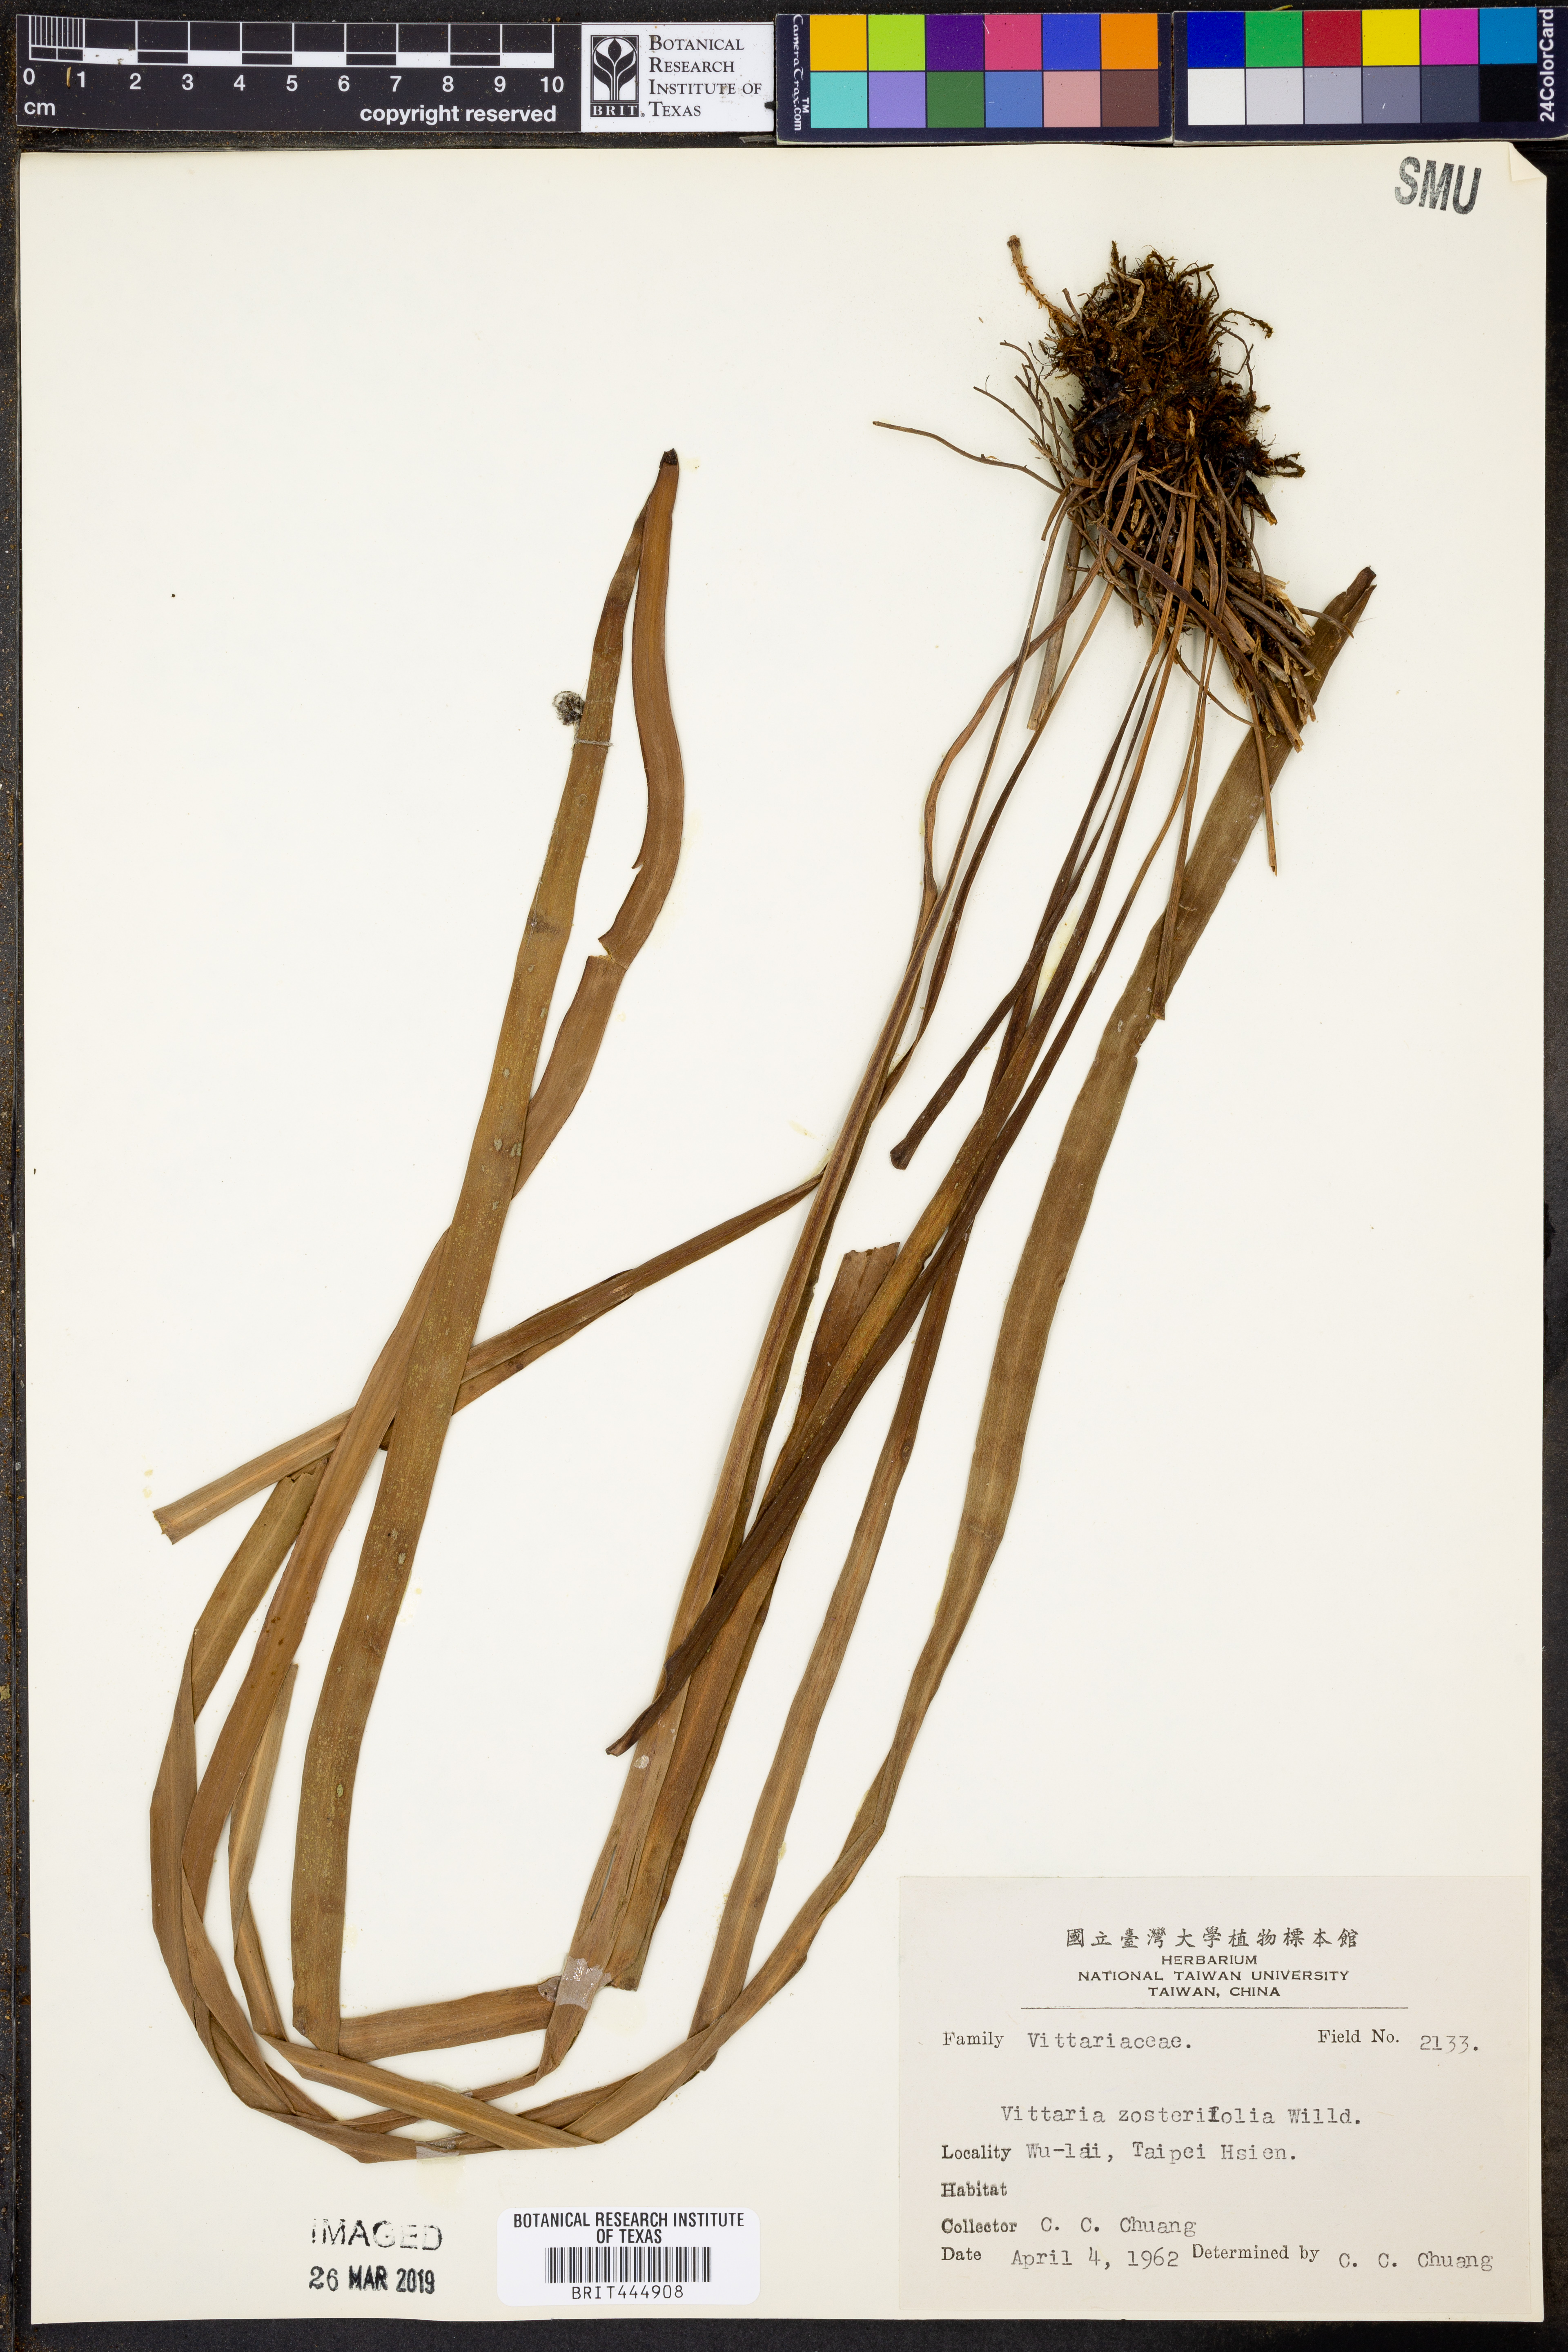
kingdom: Plantae
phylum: Tracheophyta
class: Polypodiopsida
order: Polypodiales
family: Pteridaceae
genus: Haplopteris
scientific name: Haplopteris zosterifolia
